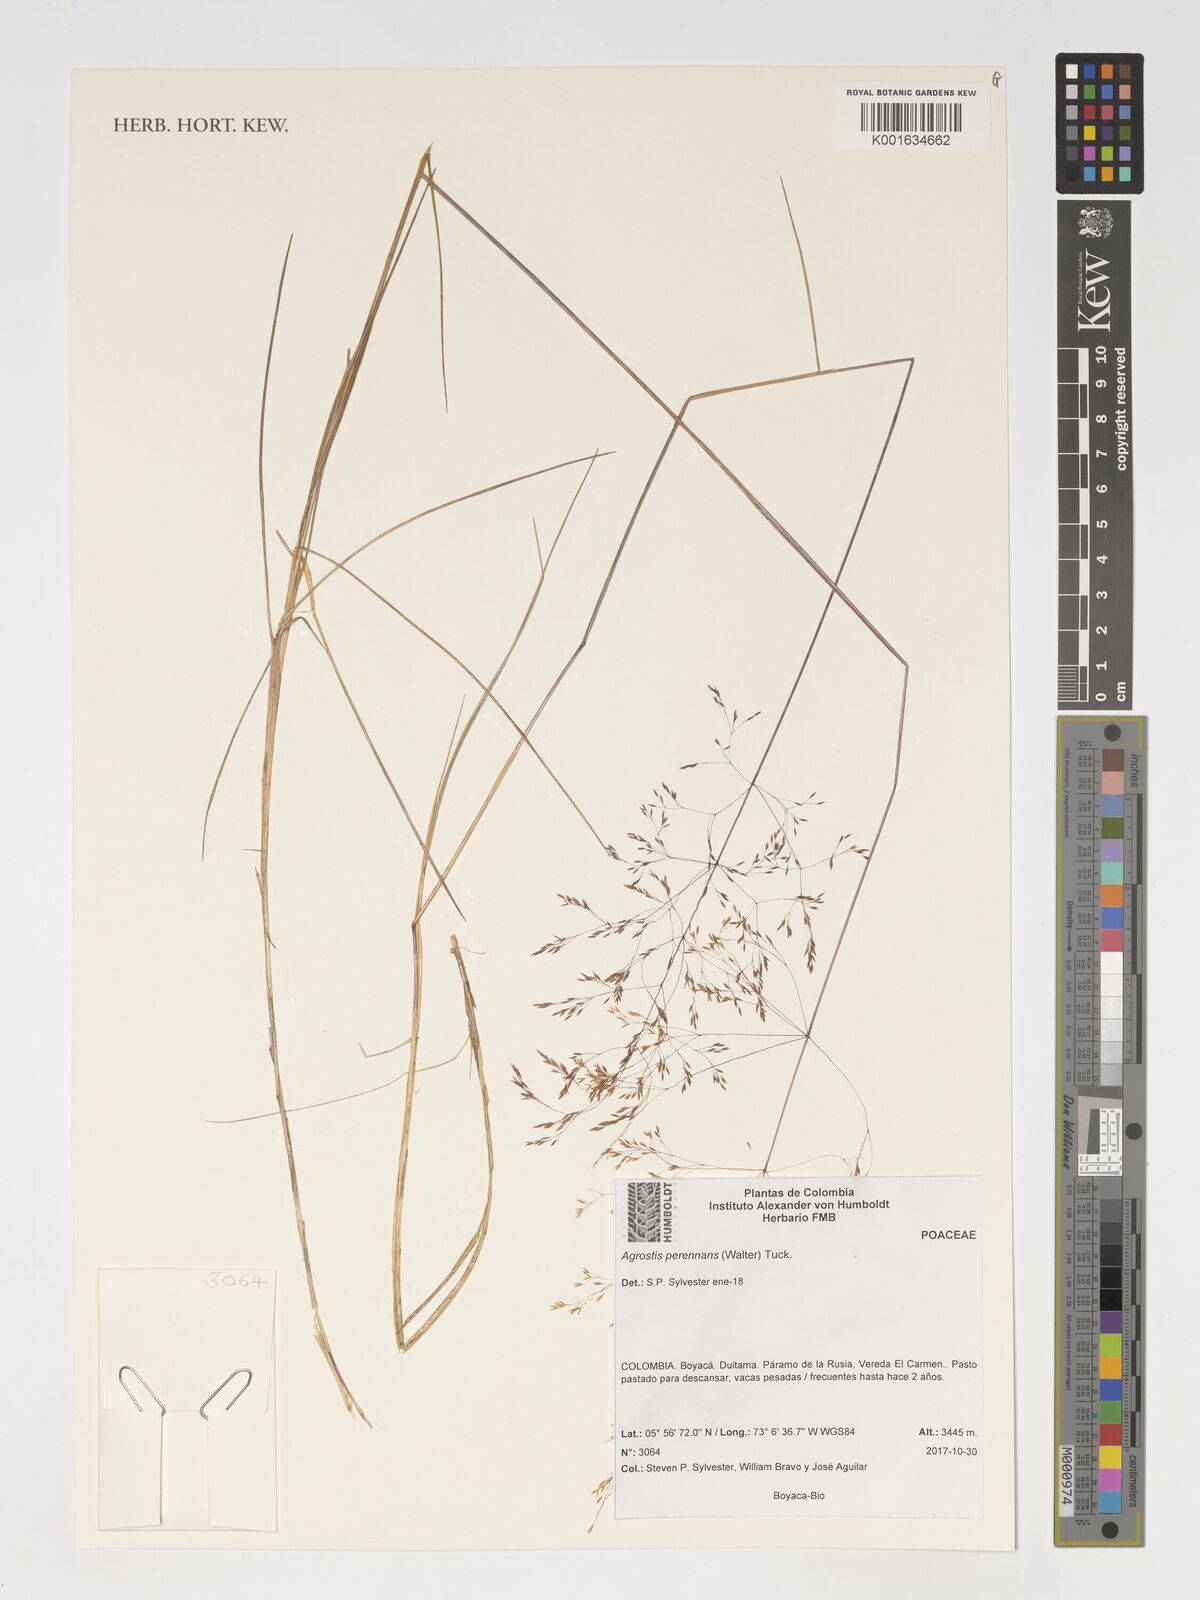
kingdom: Plantae
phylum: Tracheophyta
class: Liliopsida
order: Poales
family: Poaceae
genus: Agrostis
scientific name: Agrostis perennans
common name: Autumn bent
